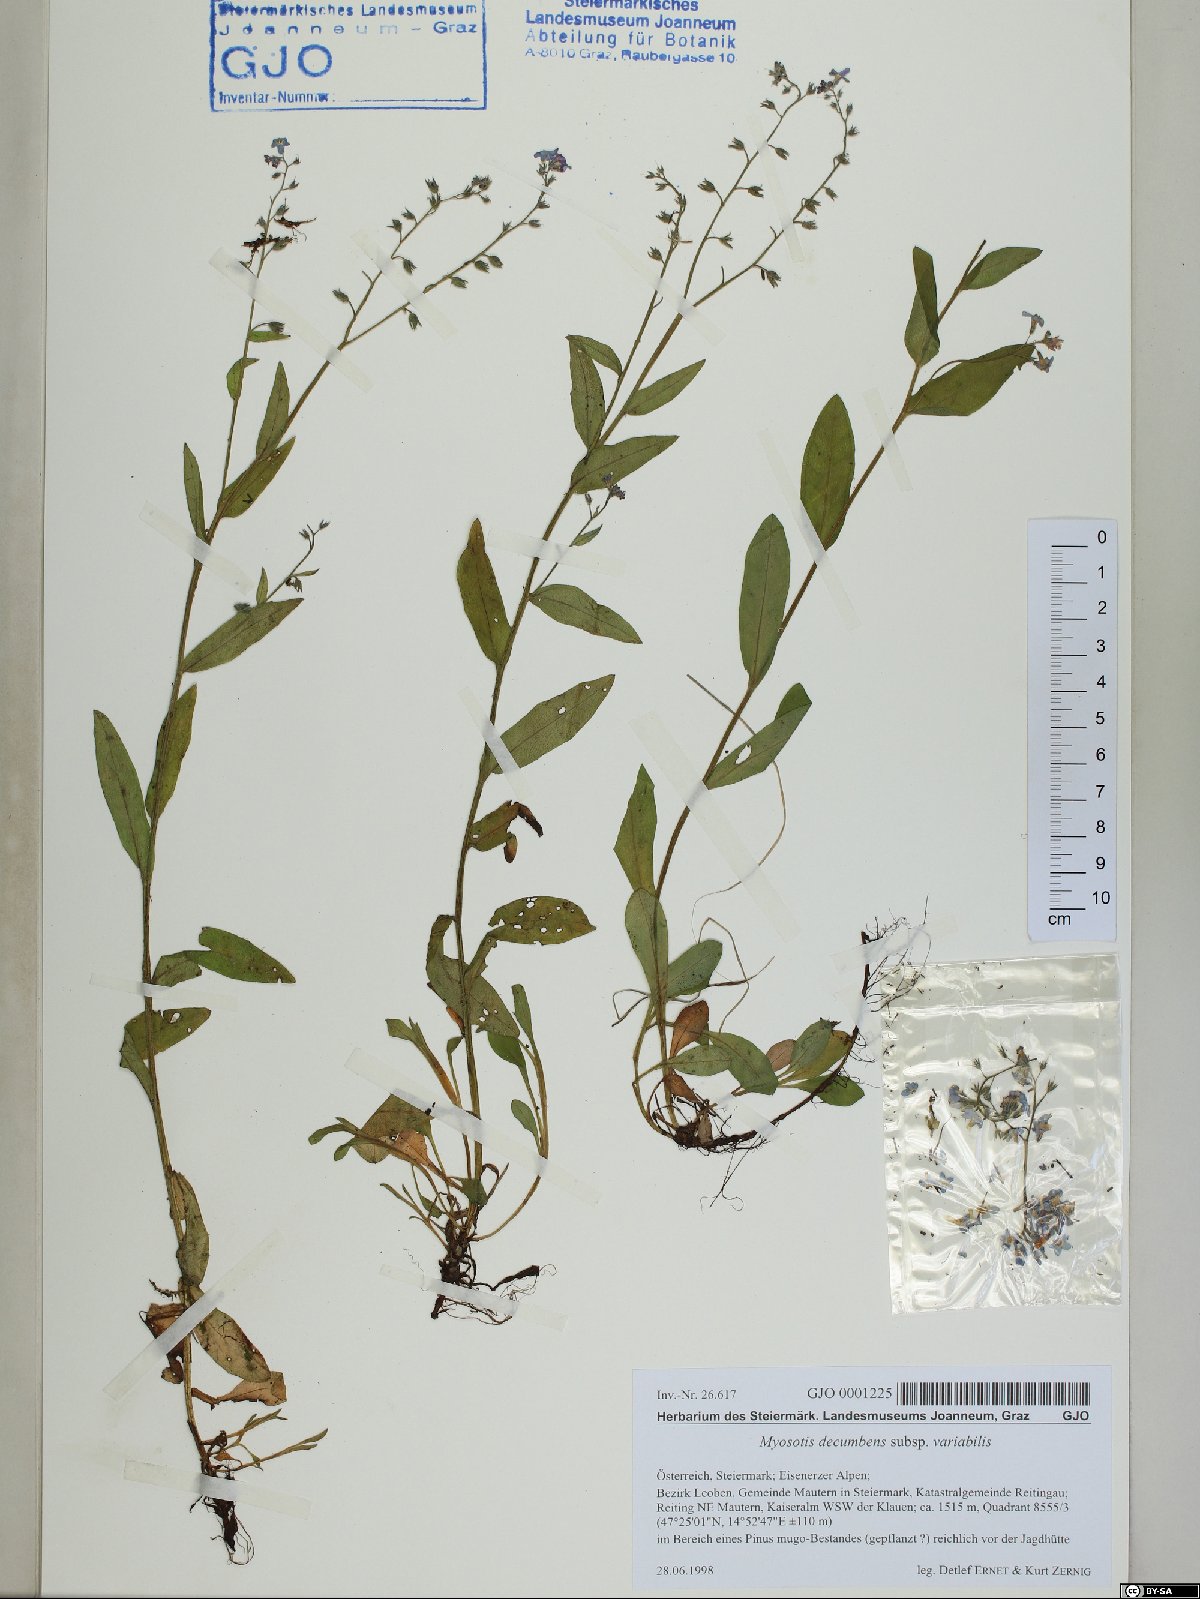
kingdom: Plantae
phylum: Tracheophyta
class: Magnoliopsida
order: Boraginales
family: Boraginaceae
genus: Myosotis
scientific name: Myosotis decumbens
